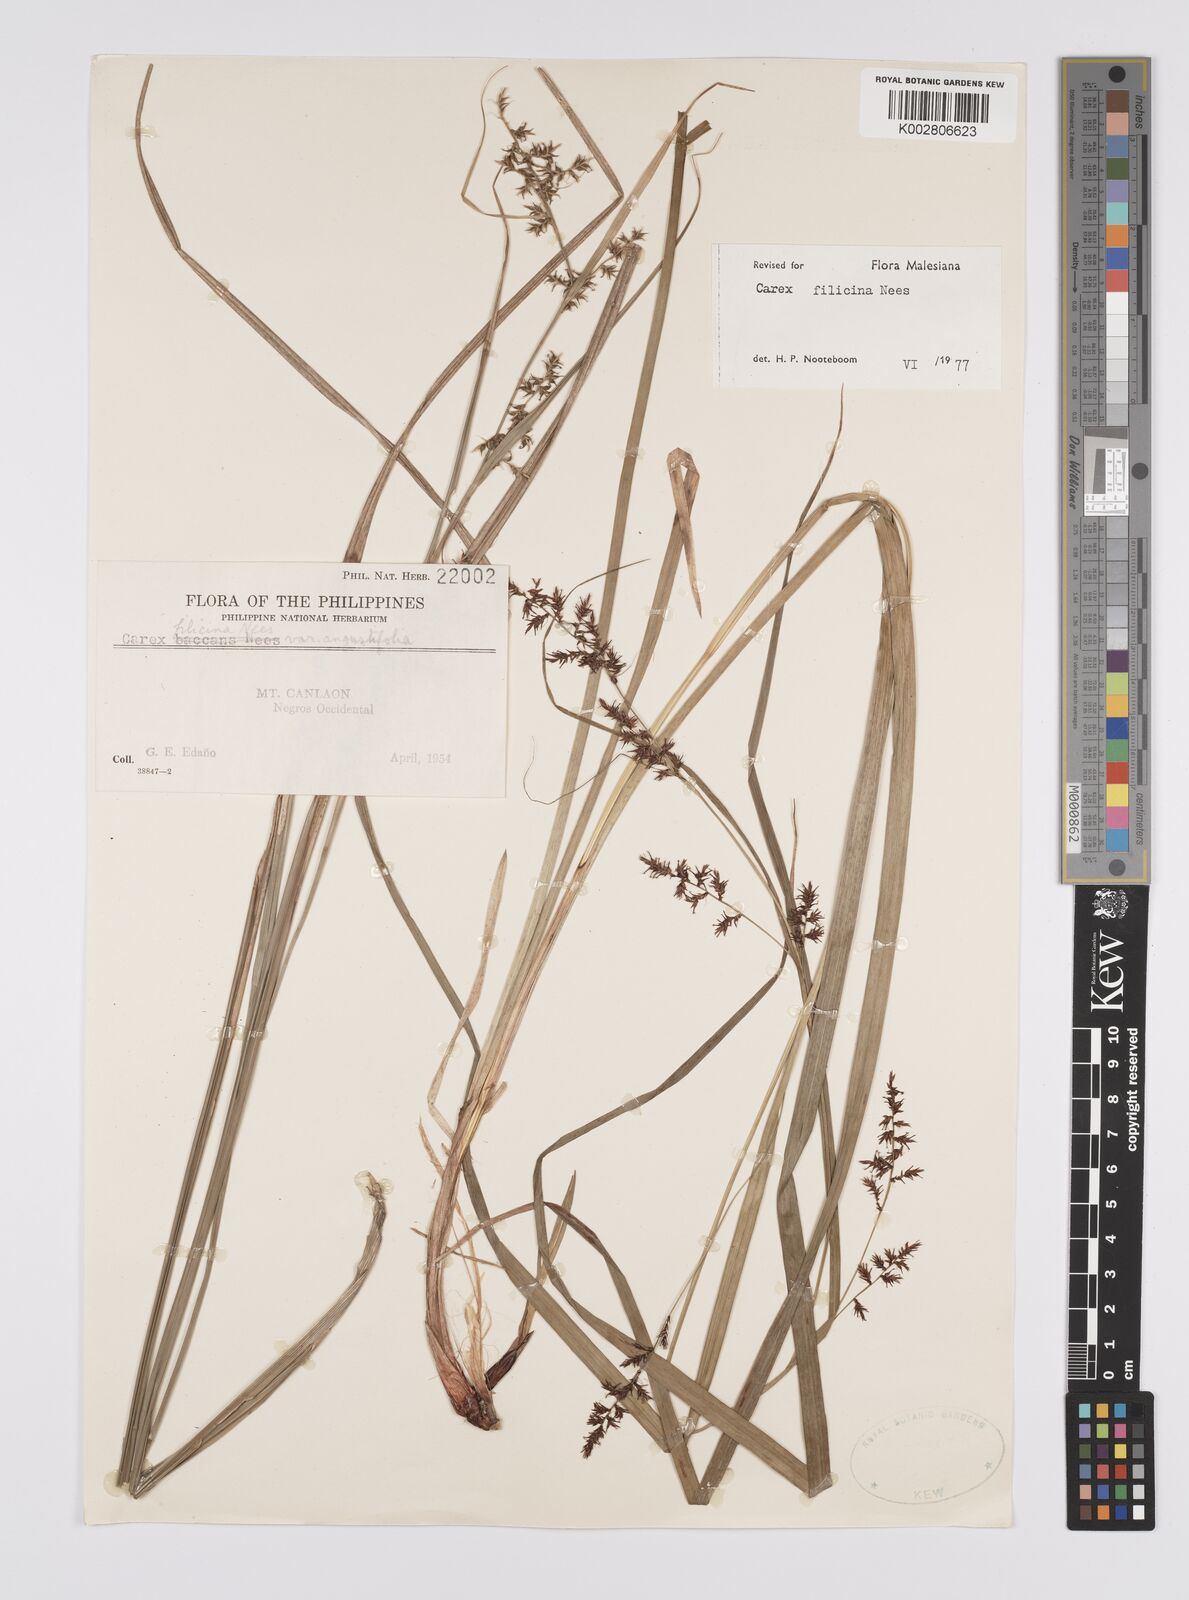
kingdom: Plantae
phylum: Tracheophyta
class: Liliopsida
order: Poales
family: Cyperaceae
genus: Carex
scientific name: Carex filicina
